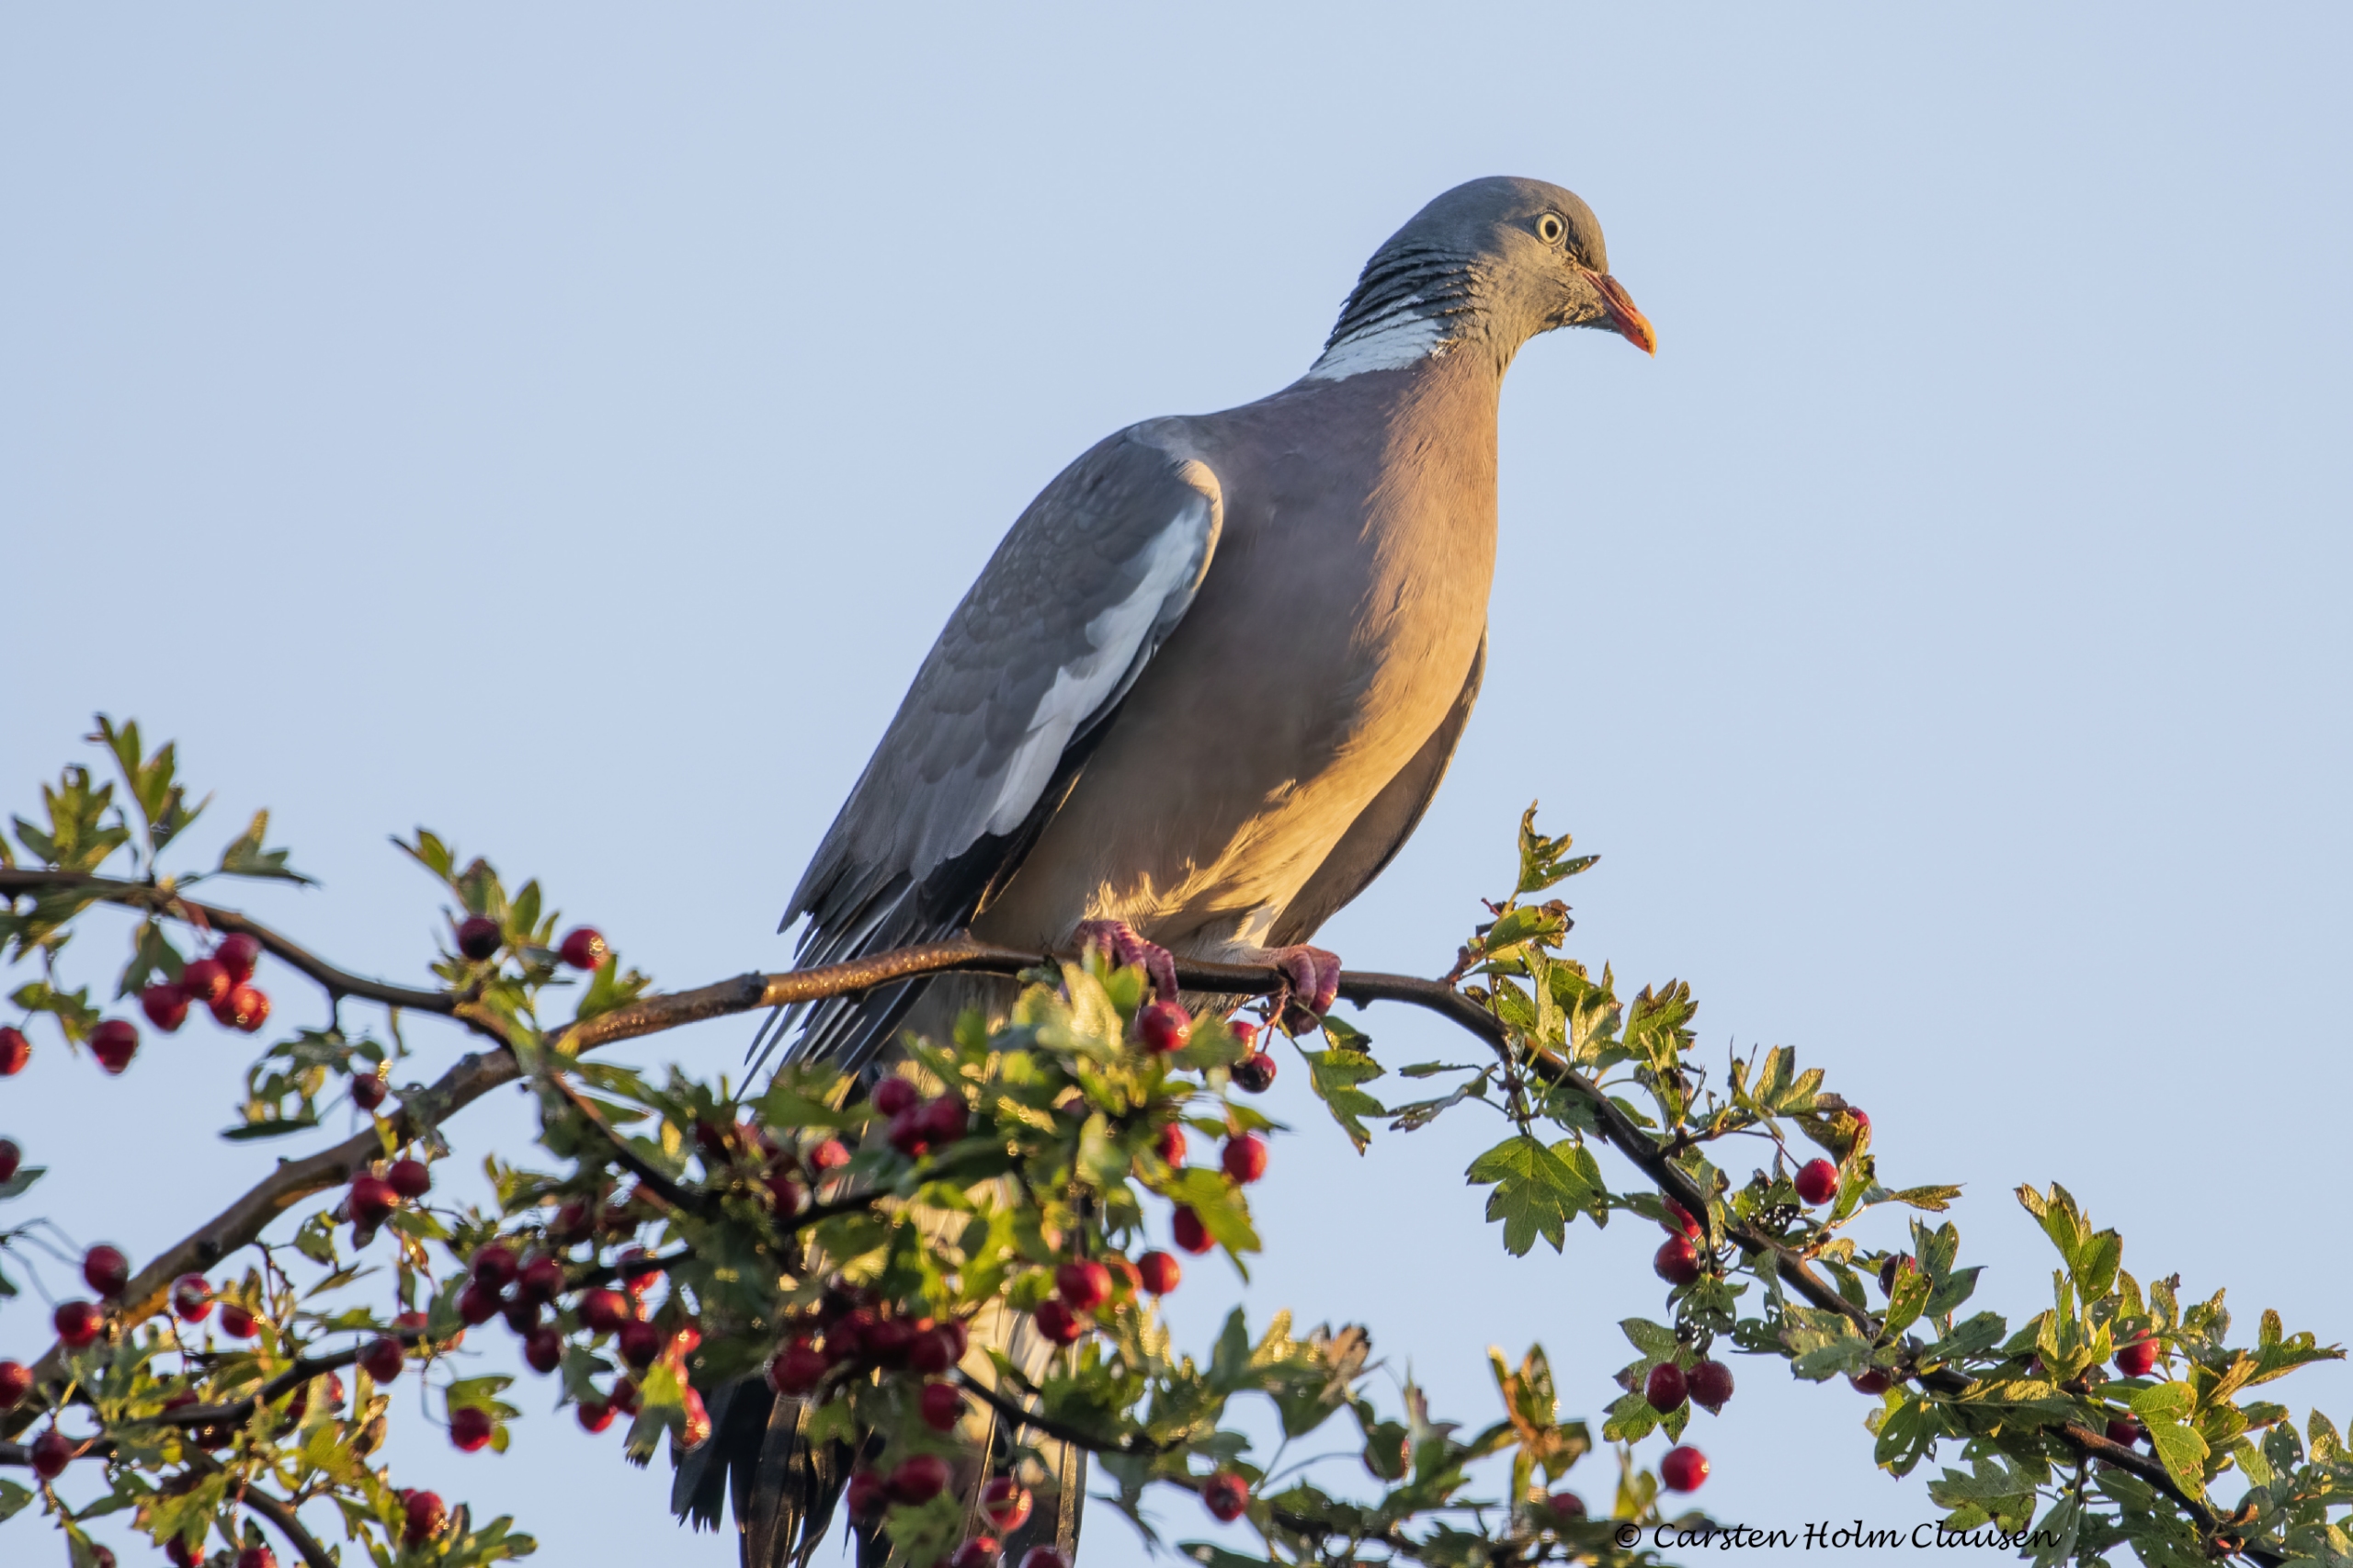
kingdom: Animalia
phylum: Chordata
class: Aves
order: Columbiformes
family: Columbidae
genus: Columba
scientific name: Columba palumbus
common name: Ringdue
